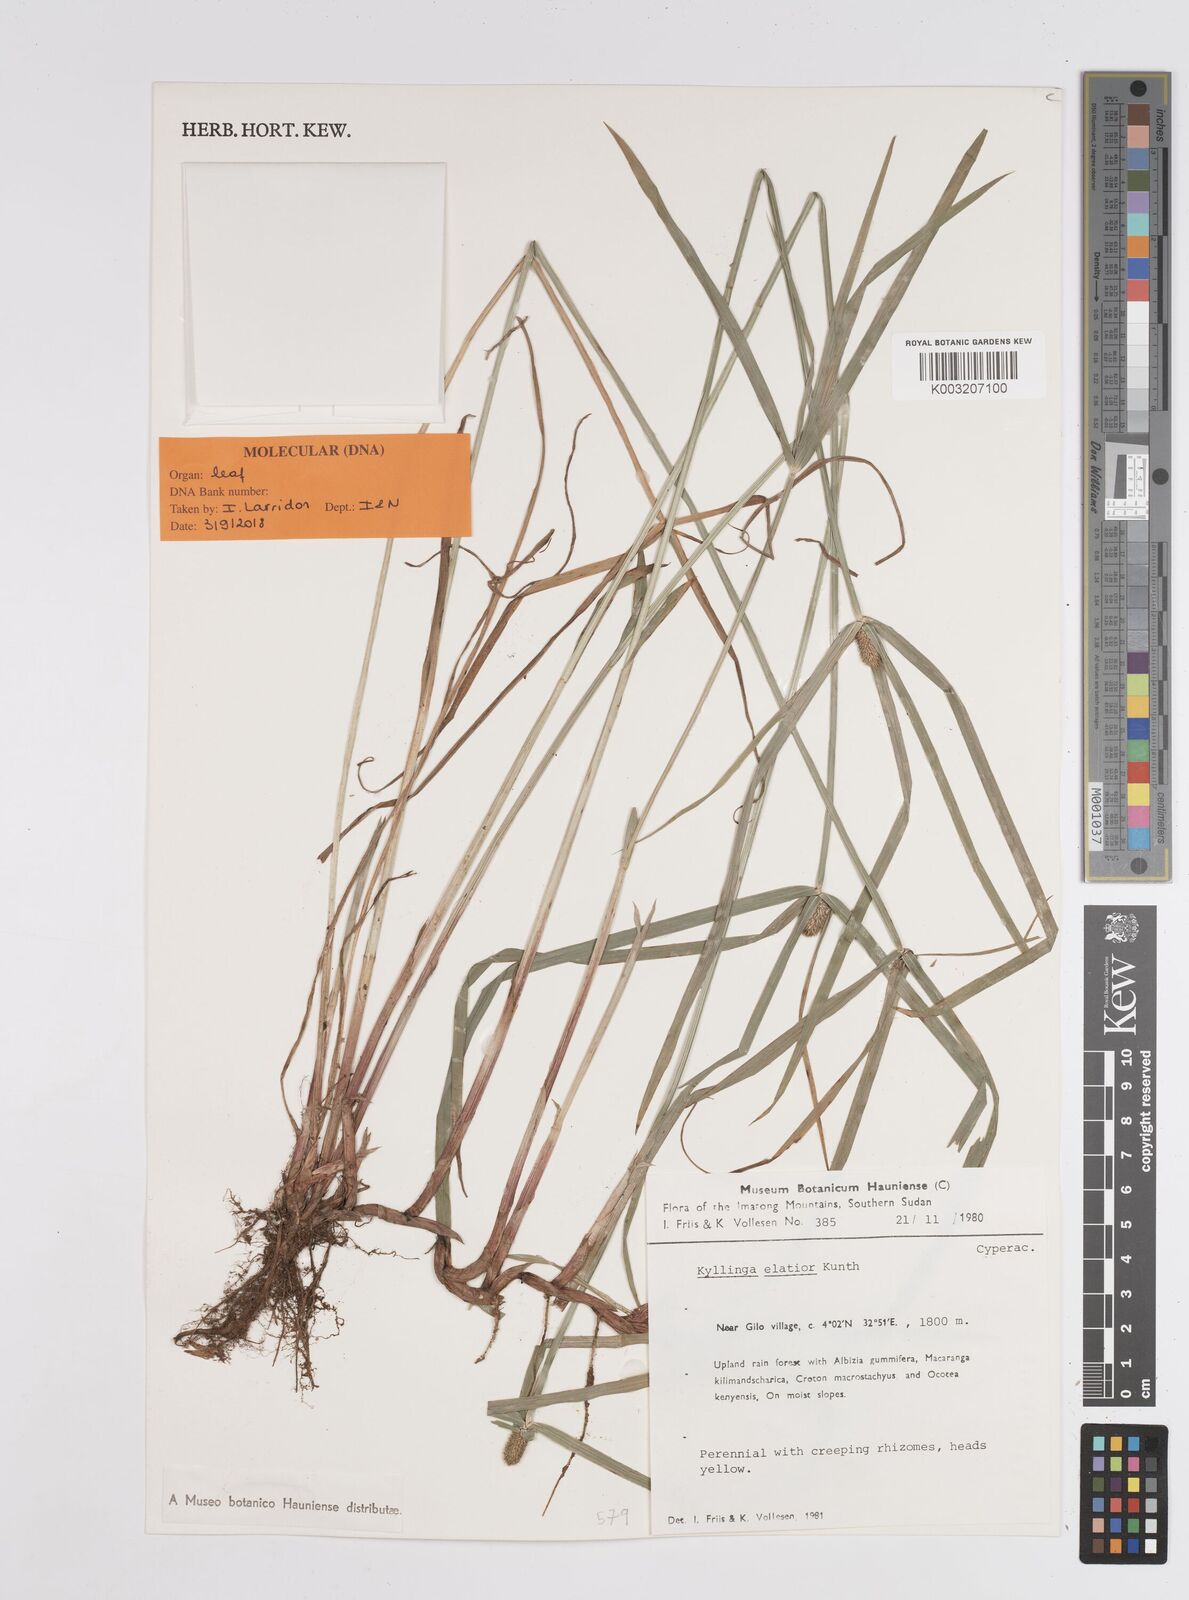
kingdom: Plantae
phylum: Tracheophyta
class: Liliopsida
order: Poales
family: Cyperaceae
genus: Cyperus
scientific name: Cyperus
